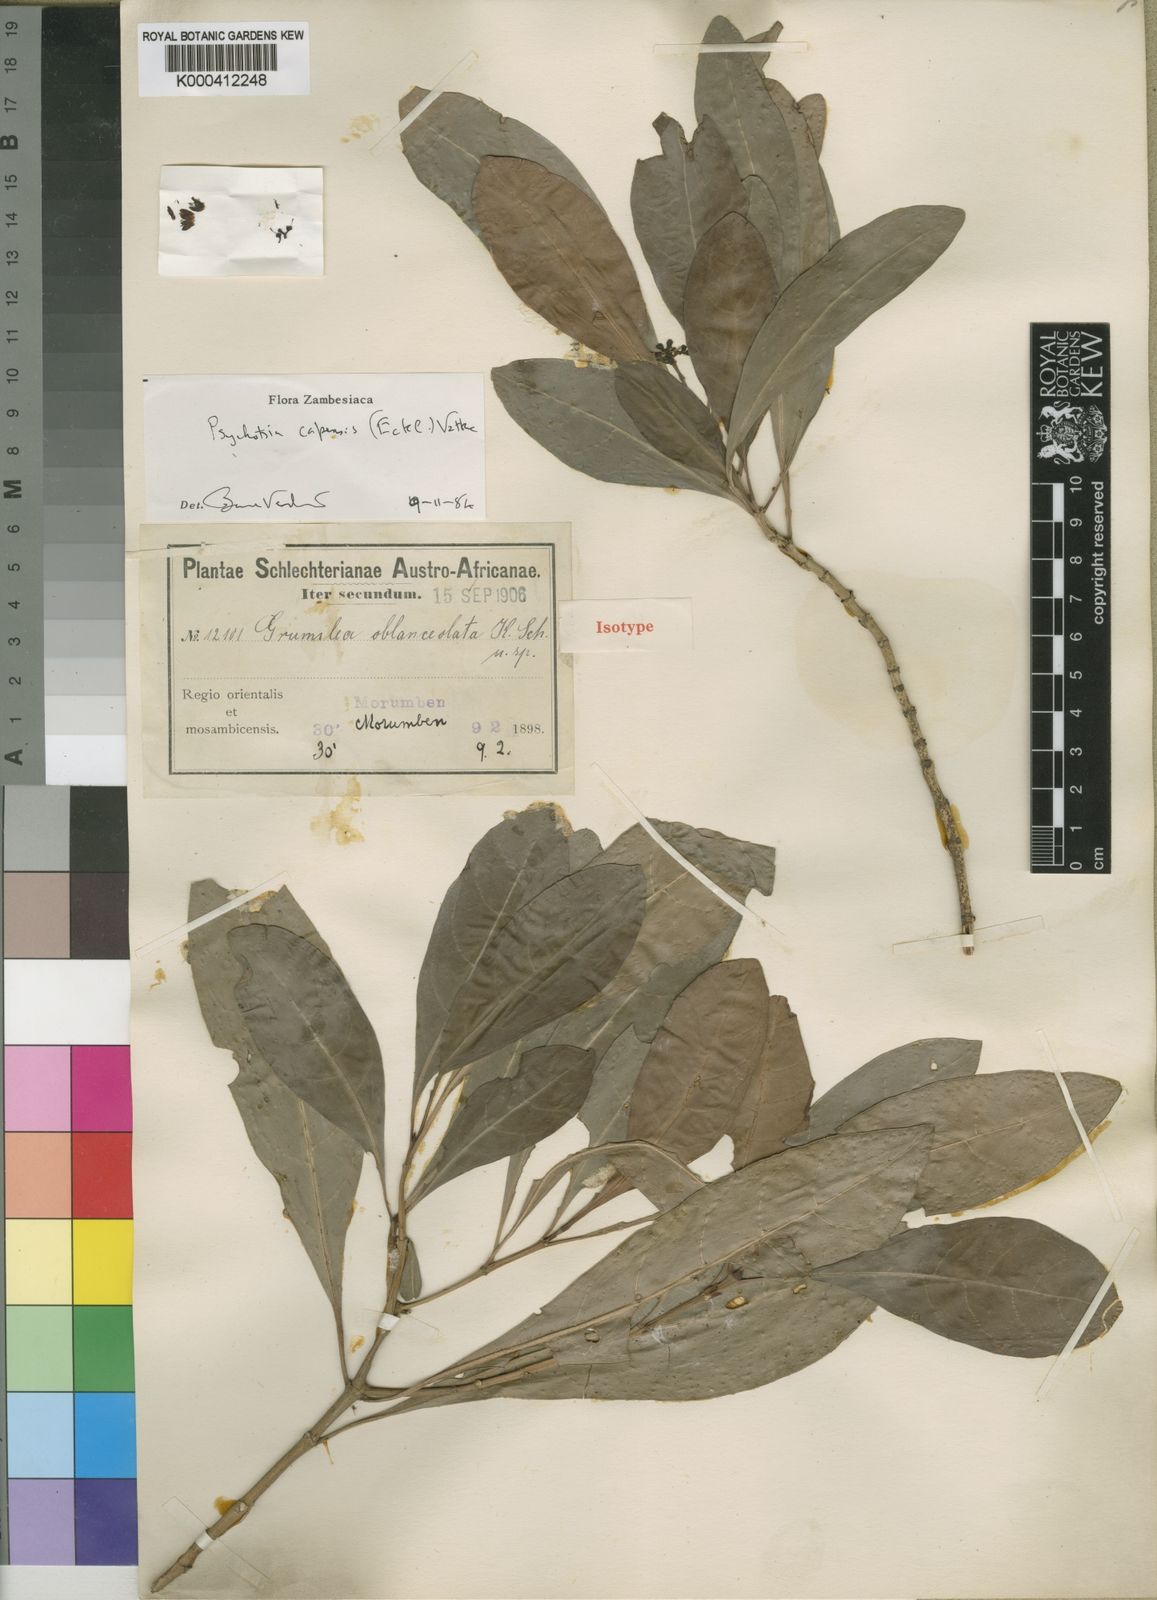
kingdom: Plantae
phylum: Tracheophyta
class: Magnoliopsida
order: Gentianales
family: Rubiaceae
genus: Psychotria
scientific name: Psychotria capensis
